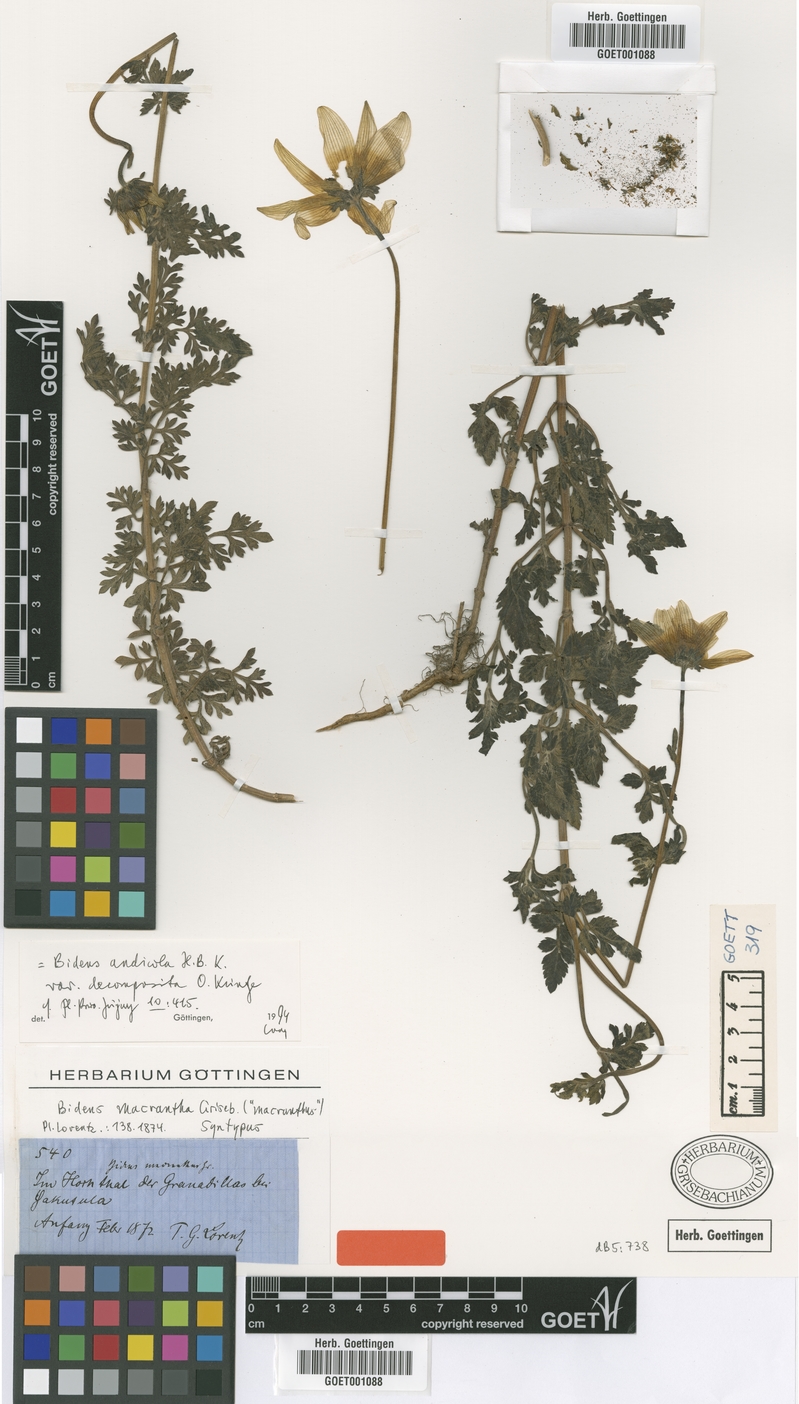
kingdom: Plantae
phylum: Tracheophyta
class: Magnoliopsida
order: Asterales
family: Asteraceae
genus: Bidens
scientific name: Bidens andicola
